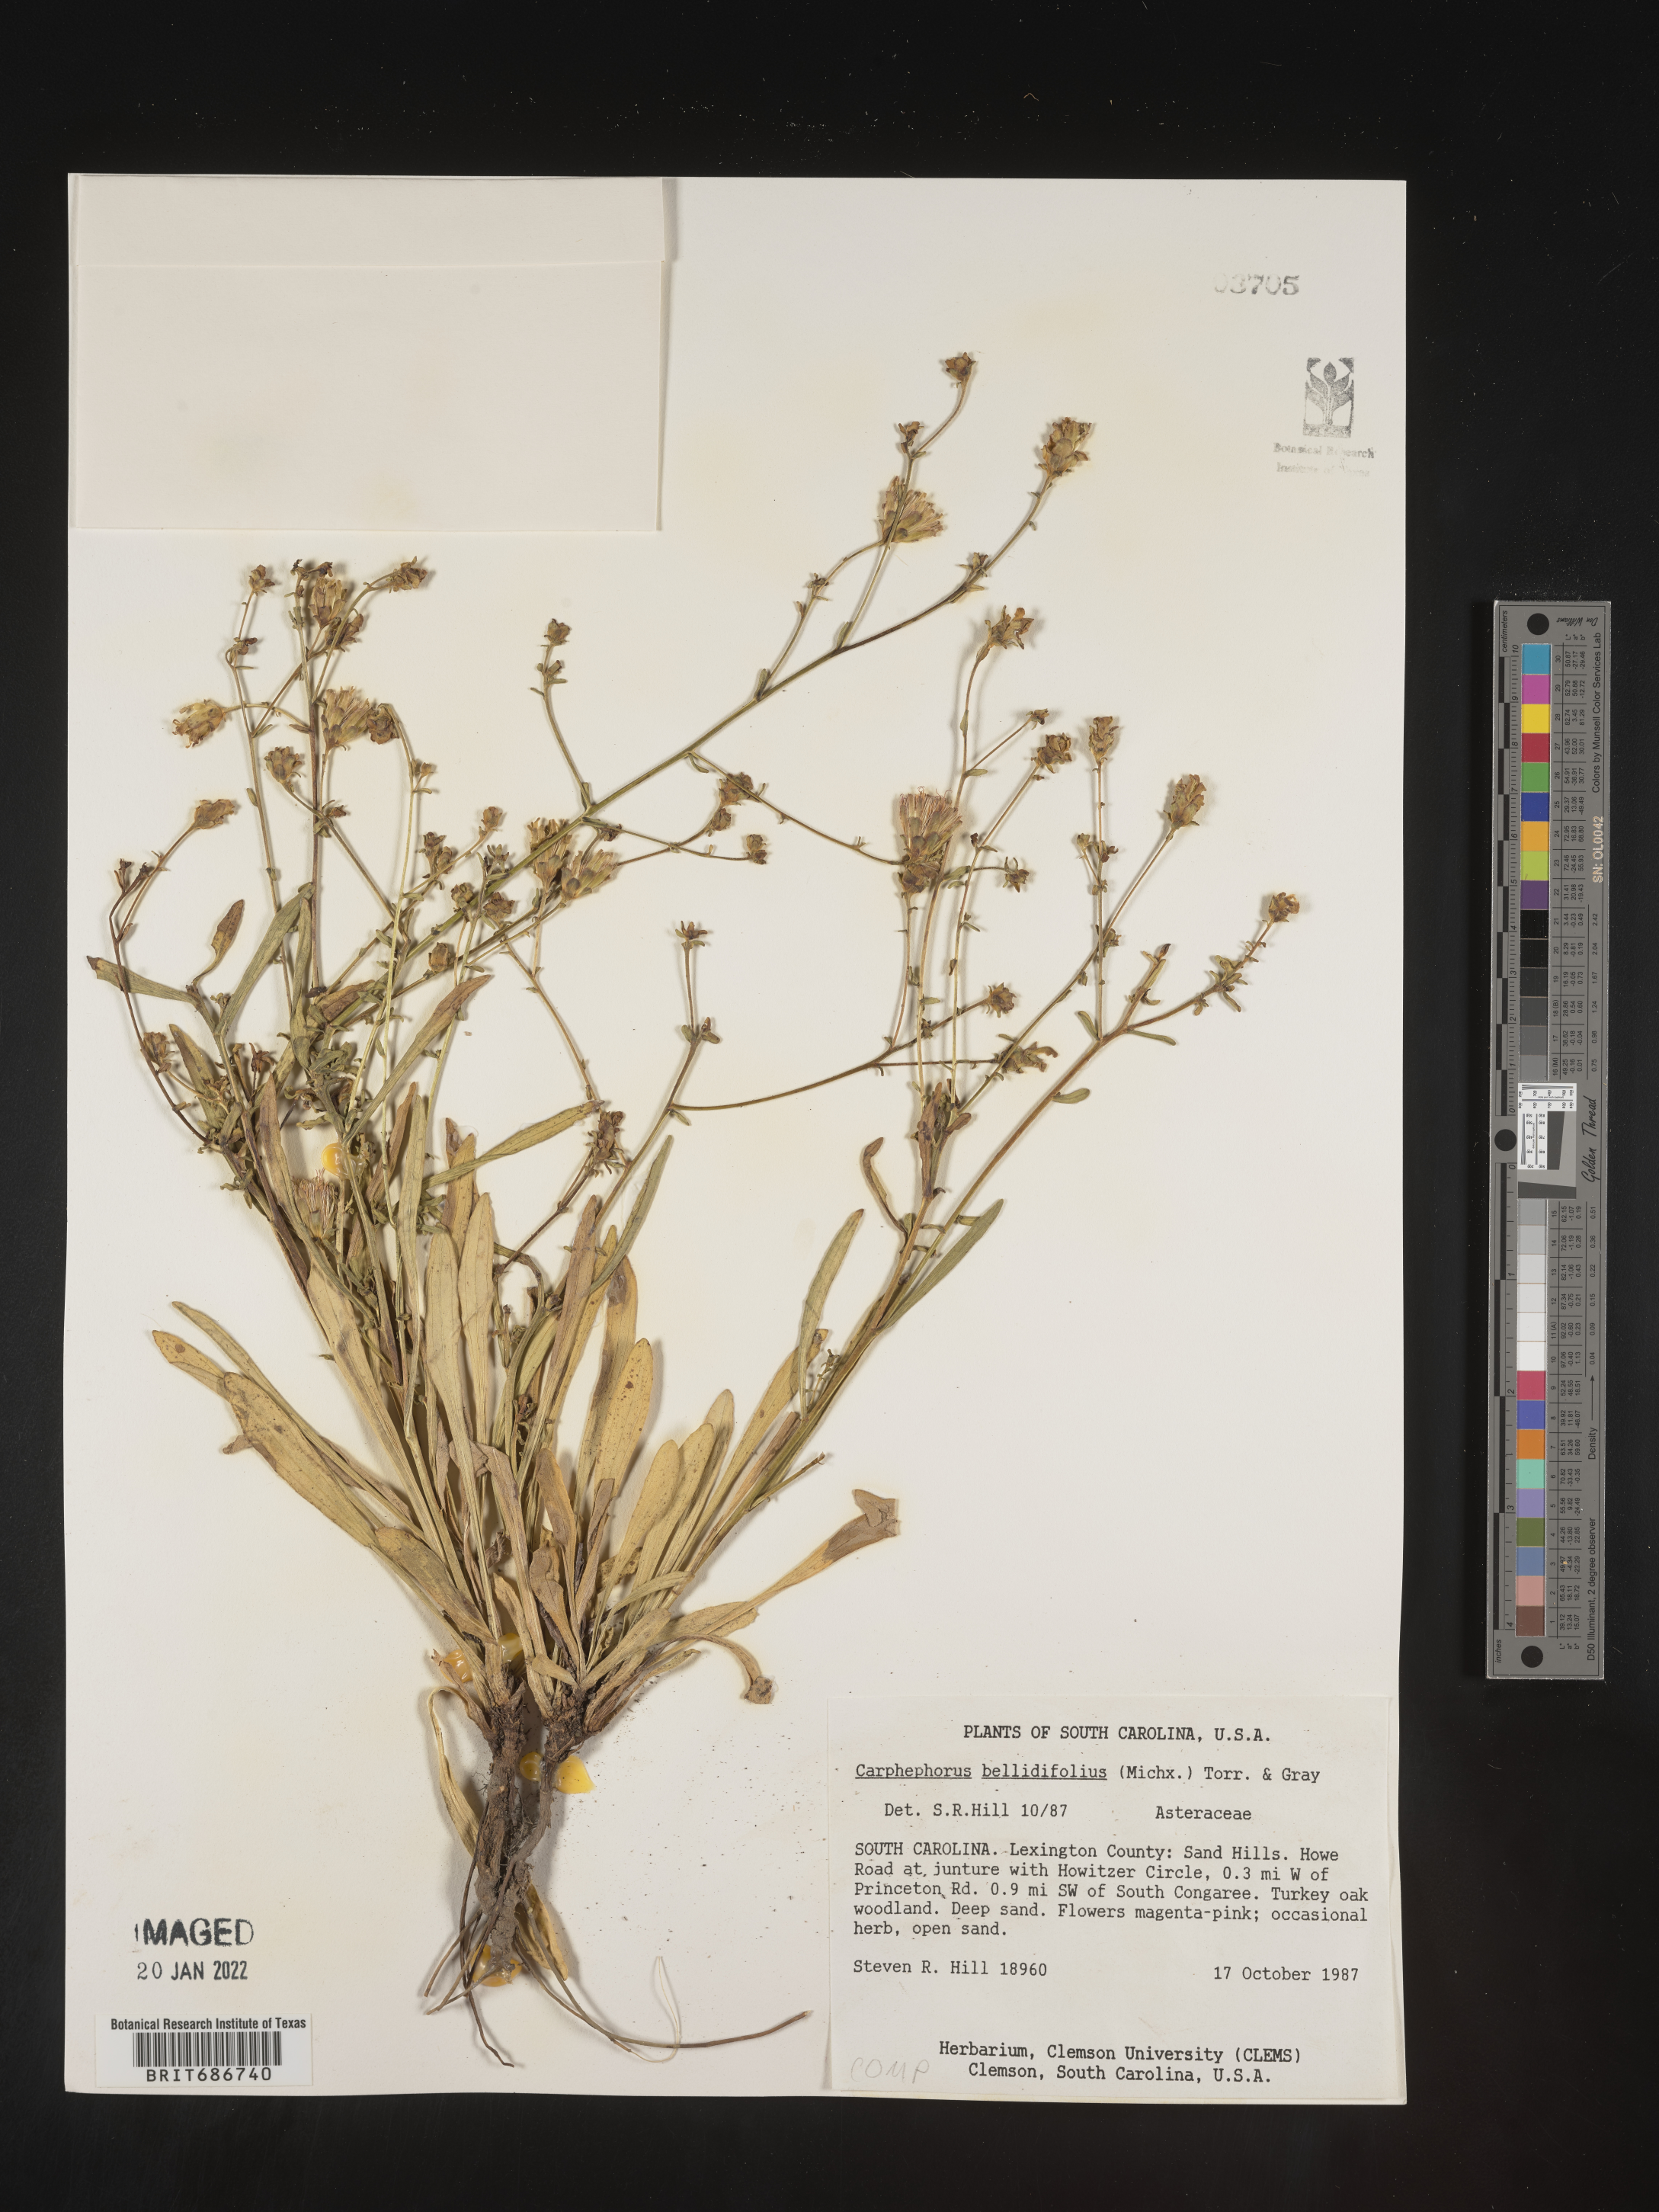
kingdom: Plantae
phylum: Tracheophyta
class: Magnoliopsida
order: Asterales
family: Asteraceae
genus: Carphephorus
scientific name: Carphephorus bellidifolius
